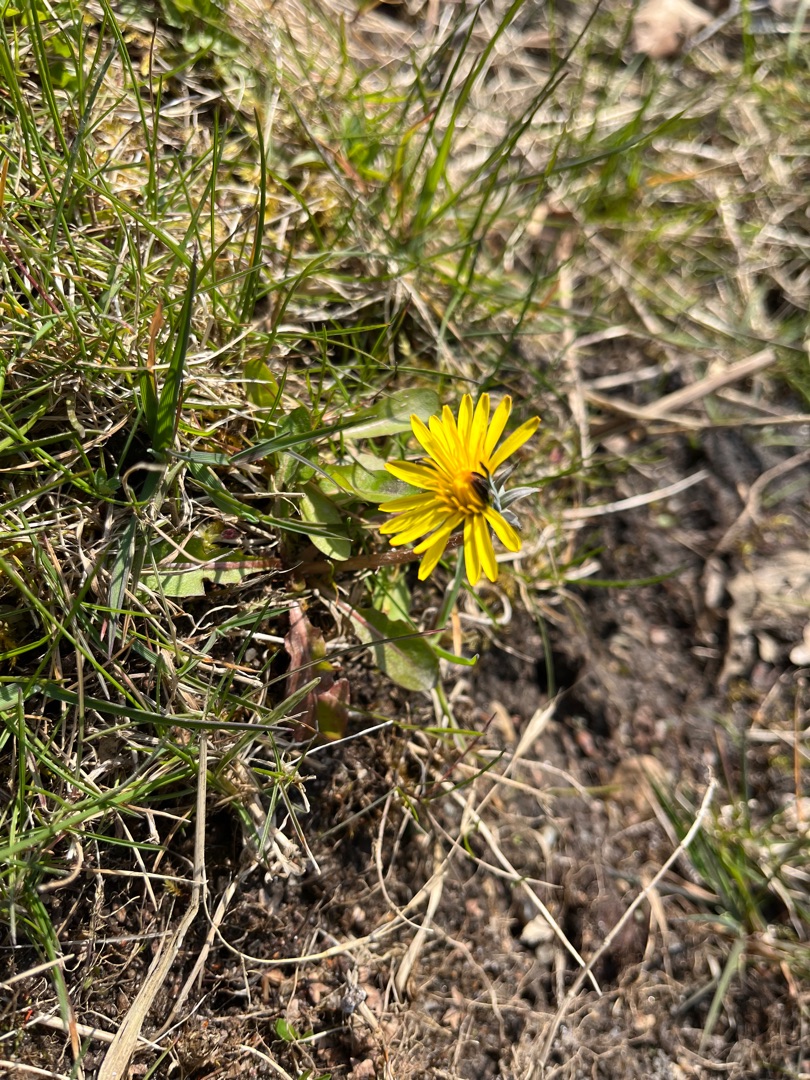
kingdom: Plantae
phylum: Tracheophyta
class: Magnoliopsida
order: Asterales
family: Asteraceae
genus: Taraxacum
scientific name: Taraxacum
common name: Mælkebøtteslægten
